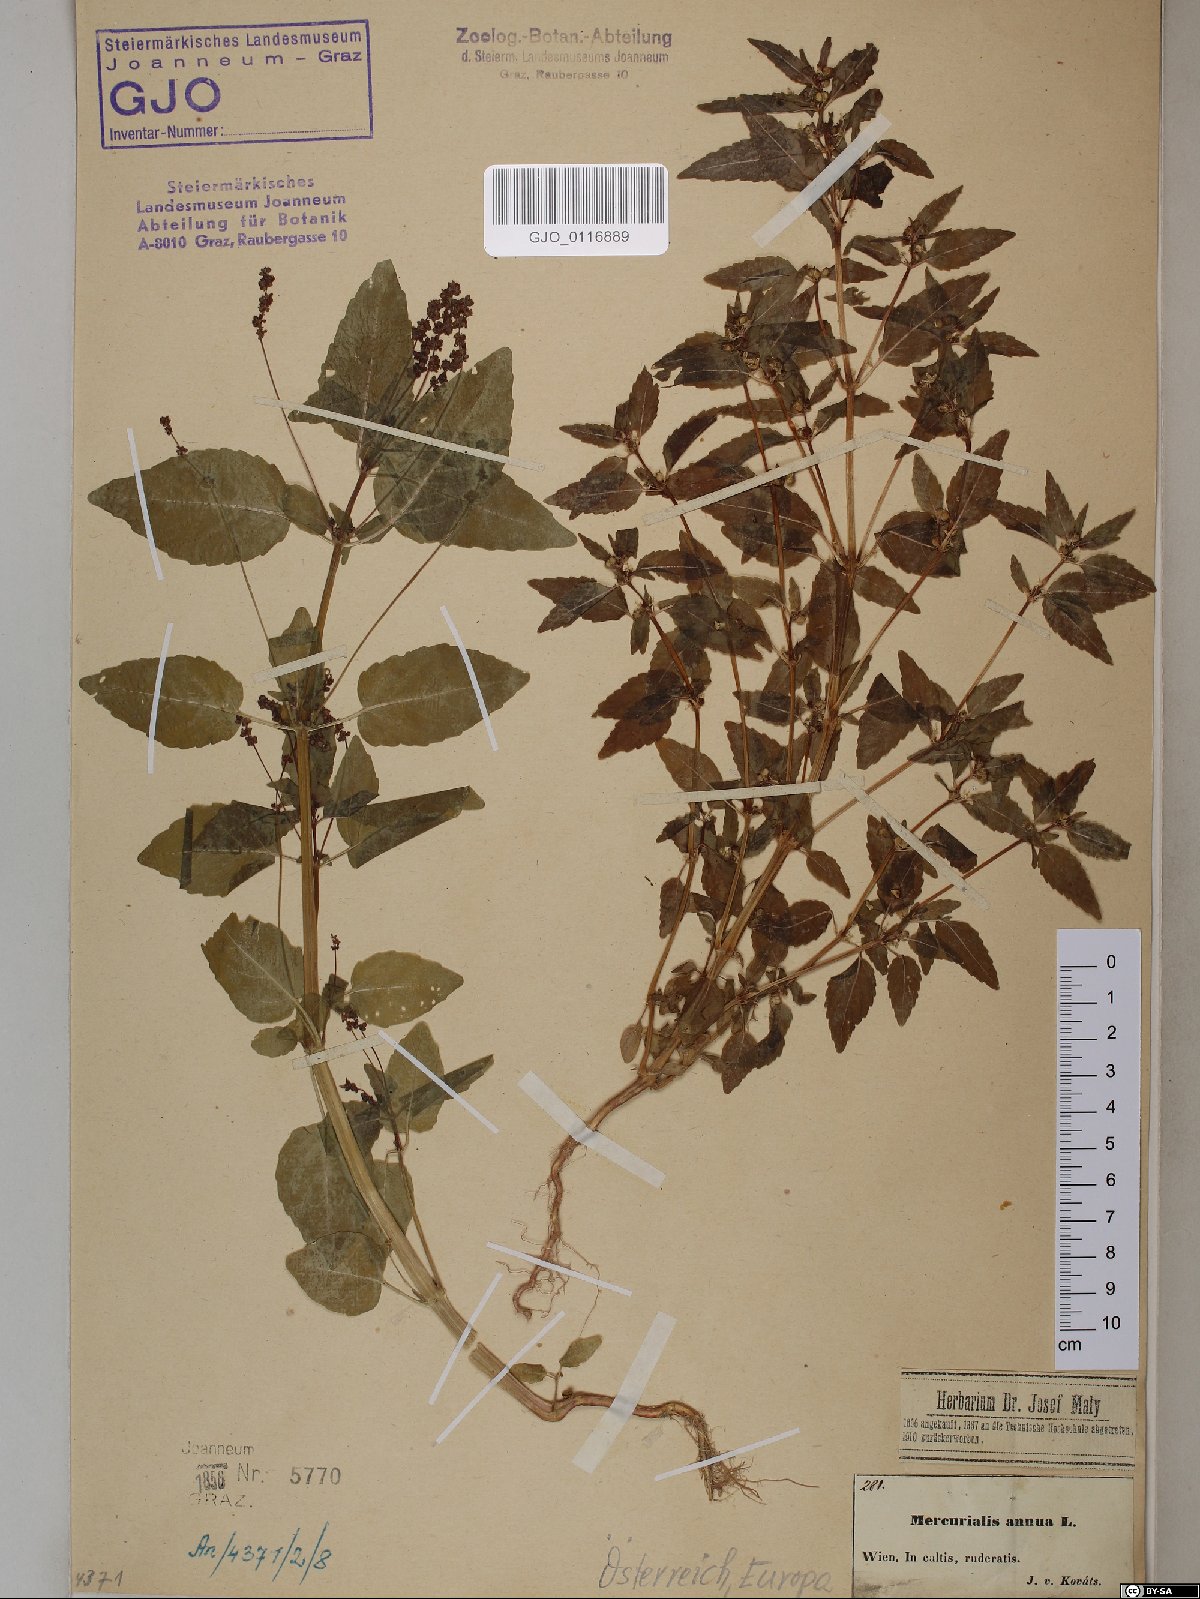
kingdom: Plantae
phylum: Tracheophyta
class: Magnoliopsida
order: Malpighiales
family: Euphorbiaceae
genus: Mercurialis
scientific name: Mercurialis annua
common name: Annual mercury
